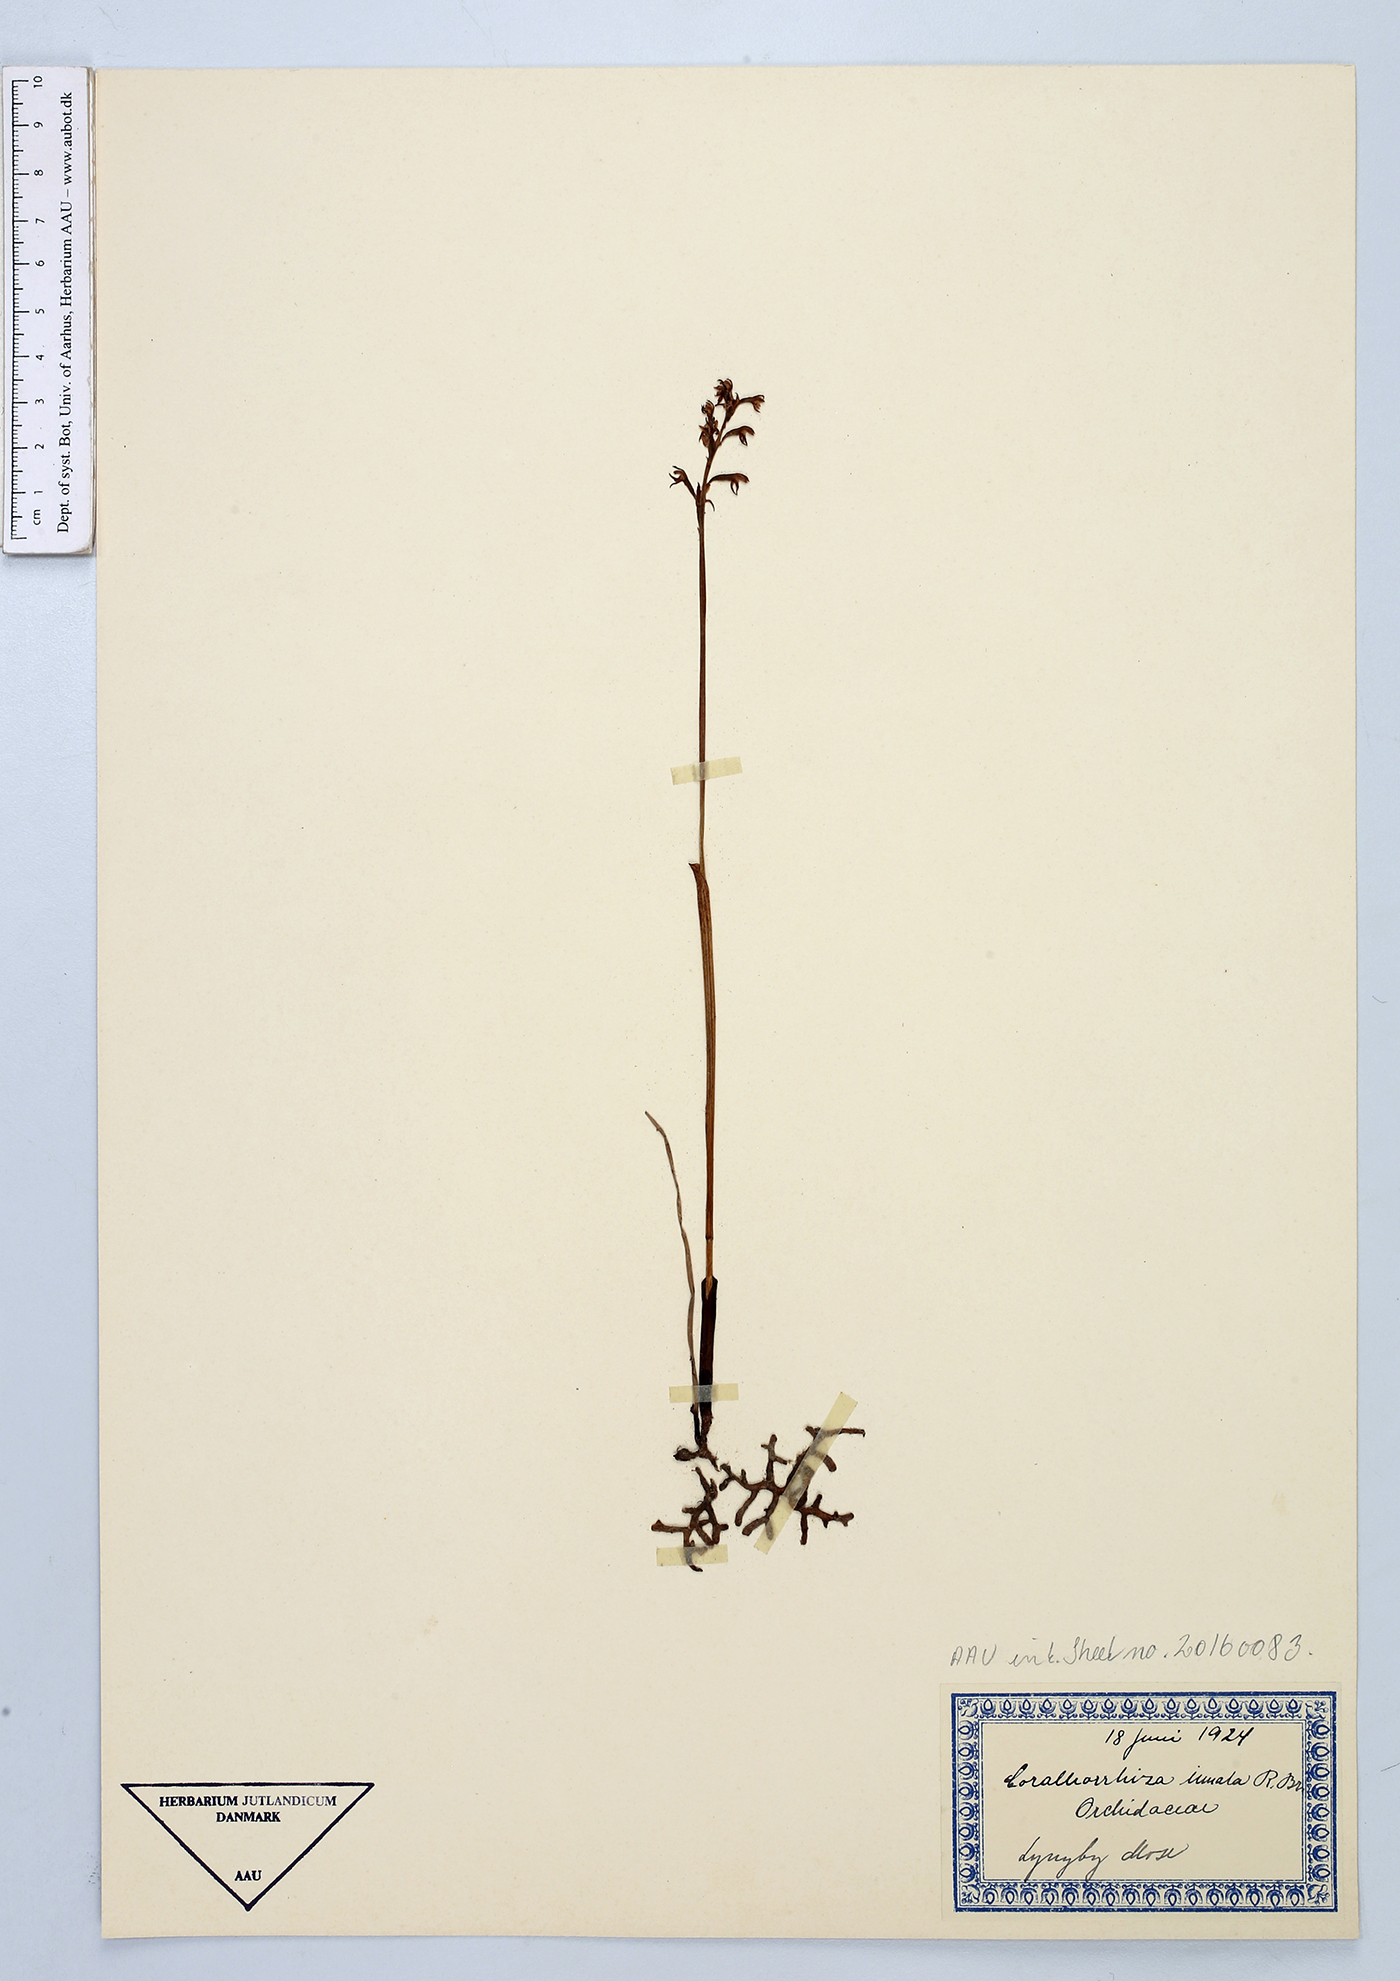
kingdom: Plantae
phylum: Tracheophyta
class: Liliopsida
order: Asparagales
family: Orchidaceae
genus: Corallorhiza
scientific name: Corallorhiza trifida
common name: Yellow coralroot
